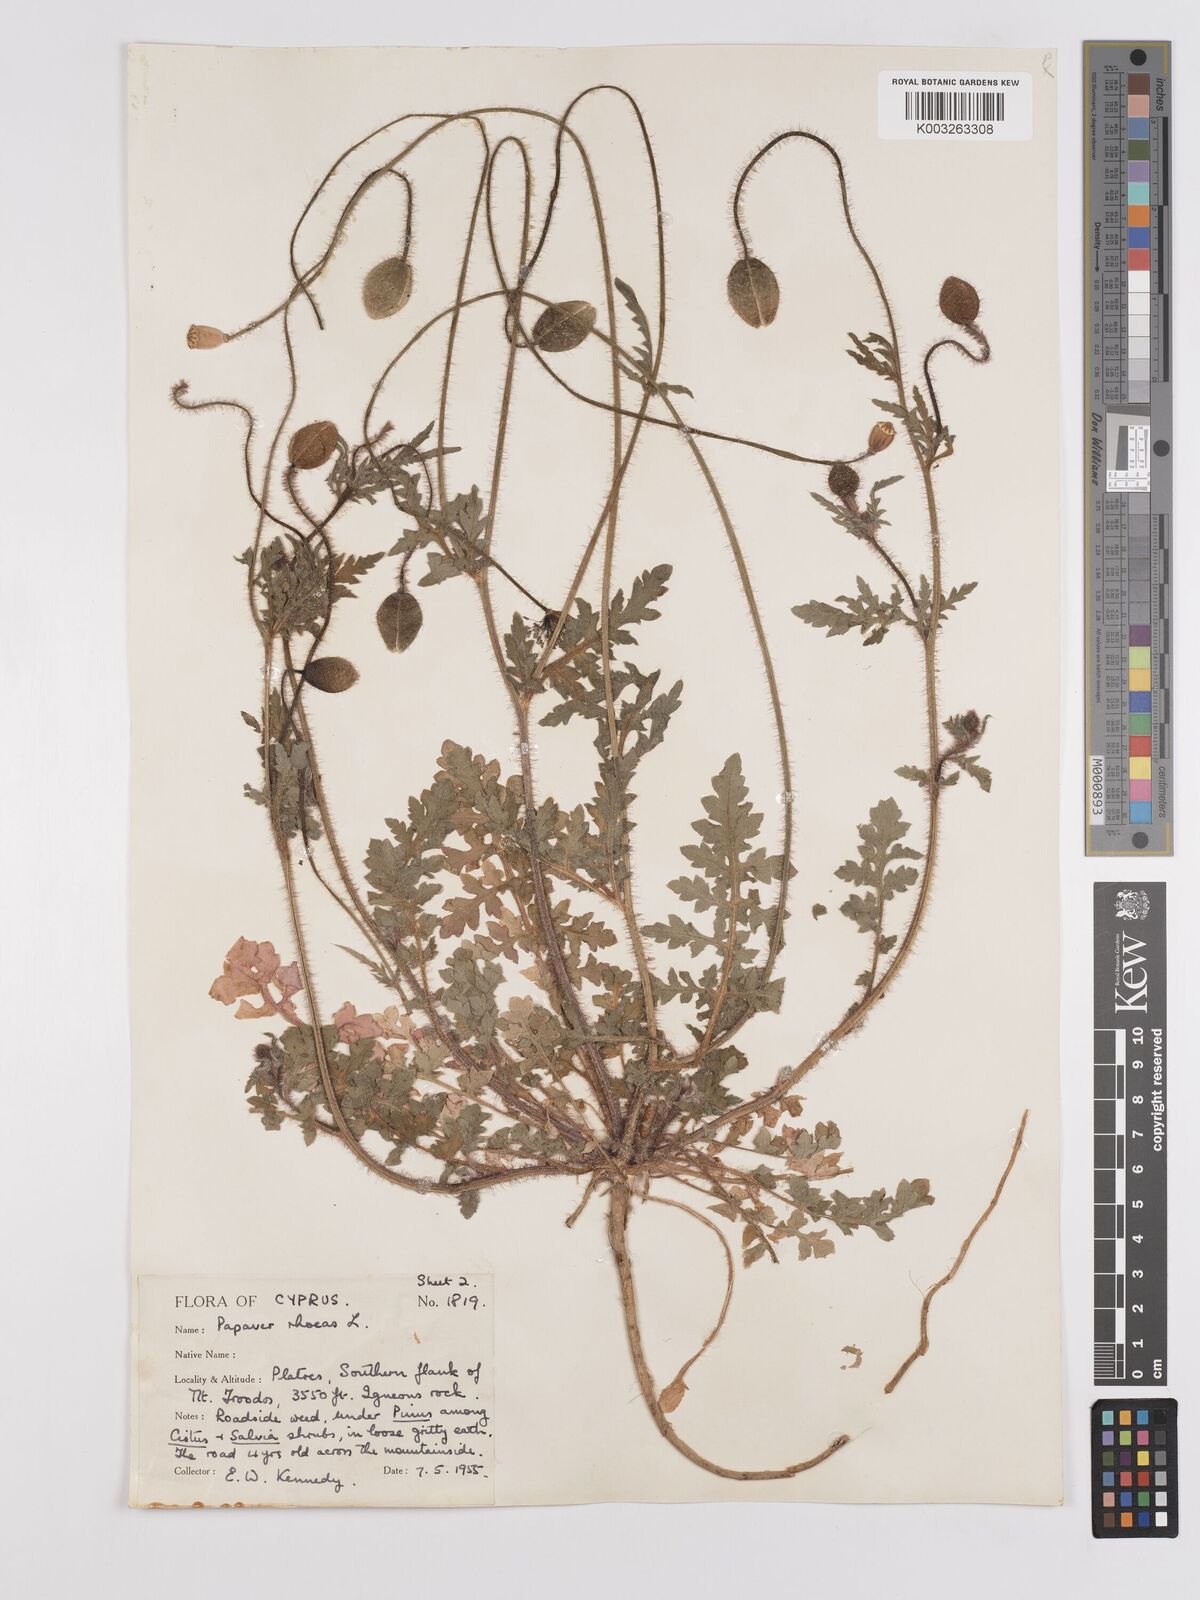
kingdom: Plantae
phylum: Tracheophyta
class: Magnoliopsida
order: Ranunculales
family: Papaveraceae
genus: Papaver
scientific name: Papaver rhoeas
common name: Corn poppy
